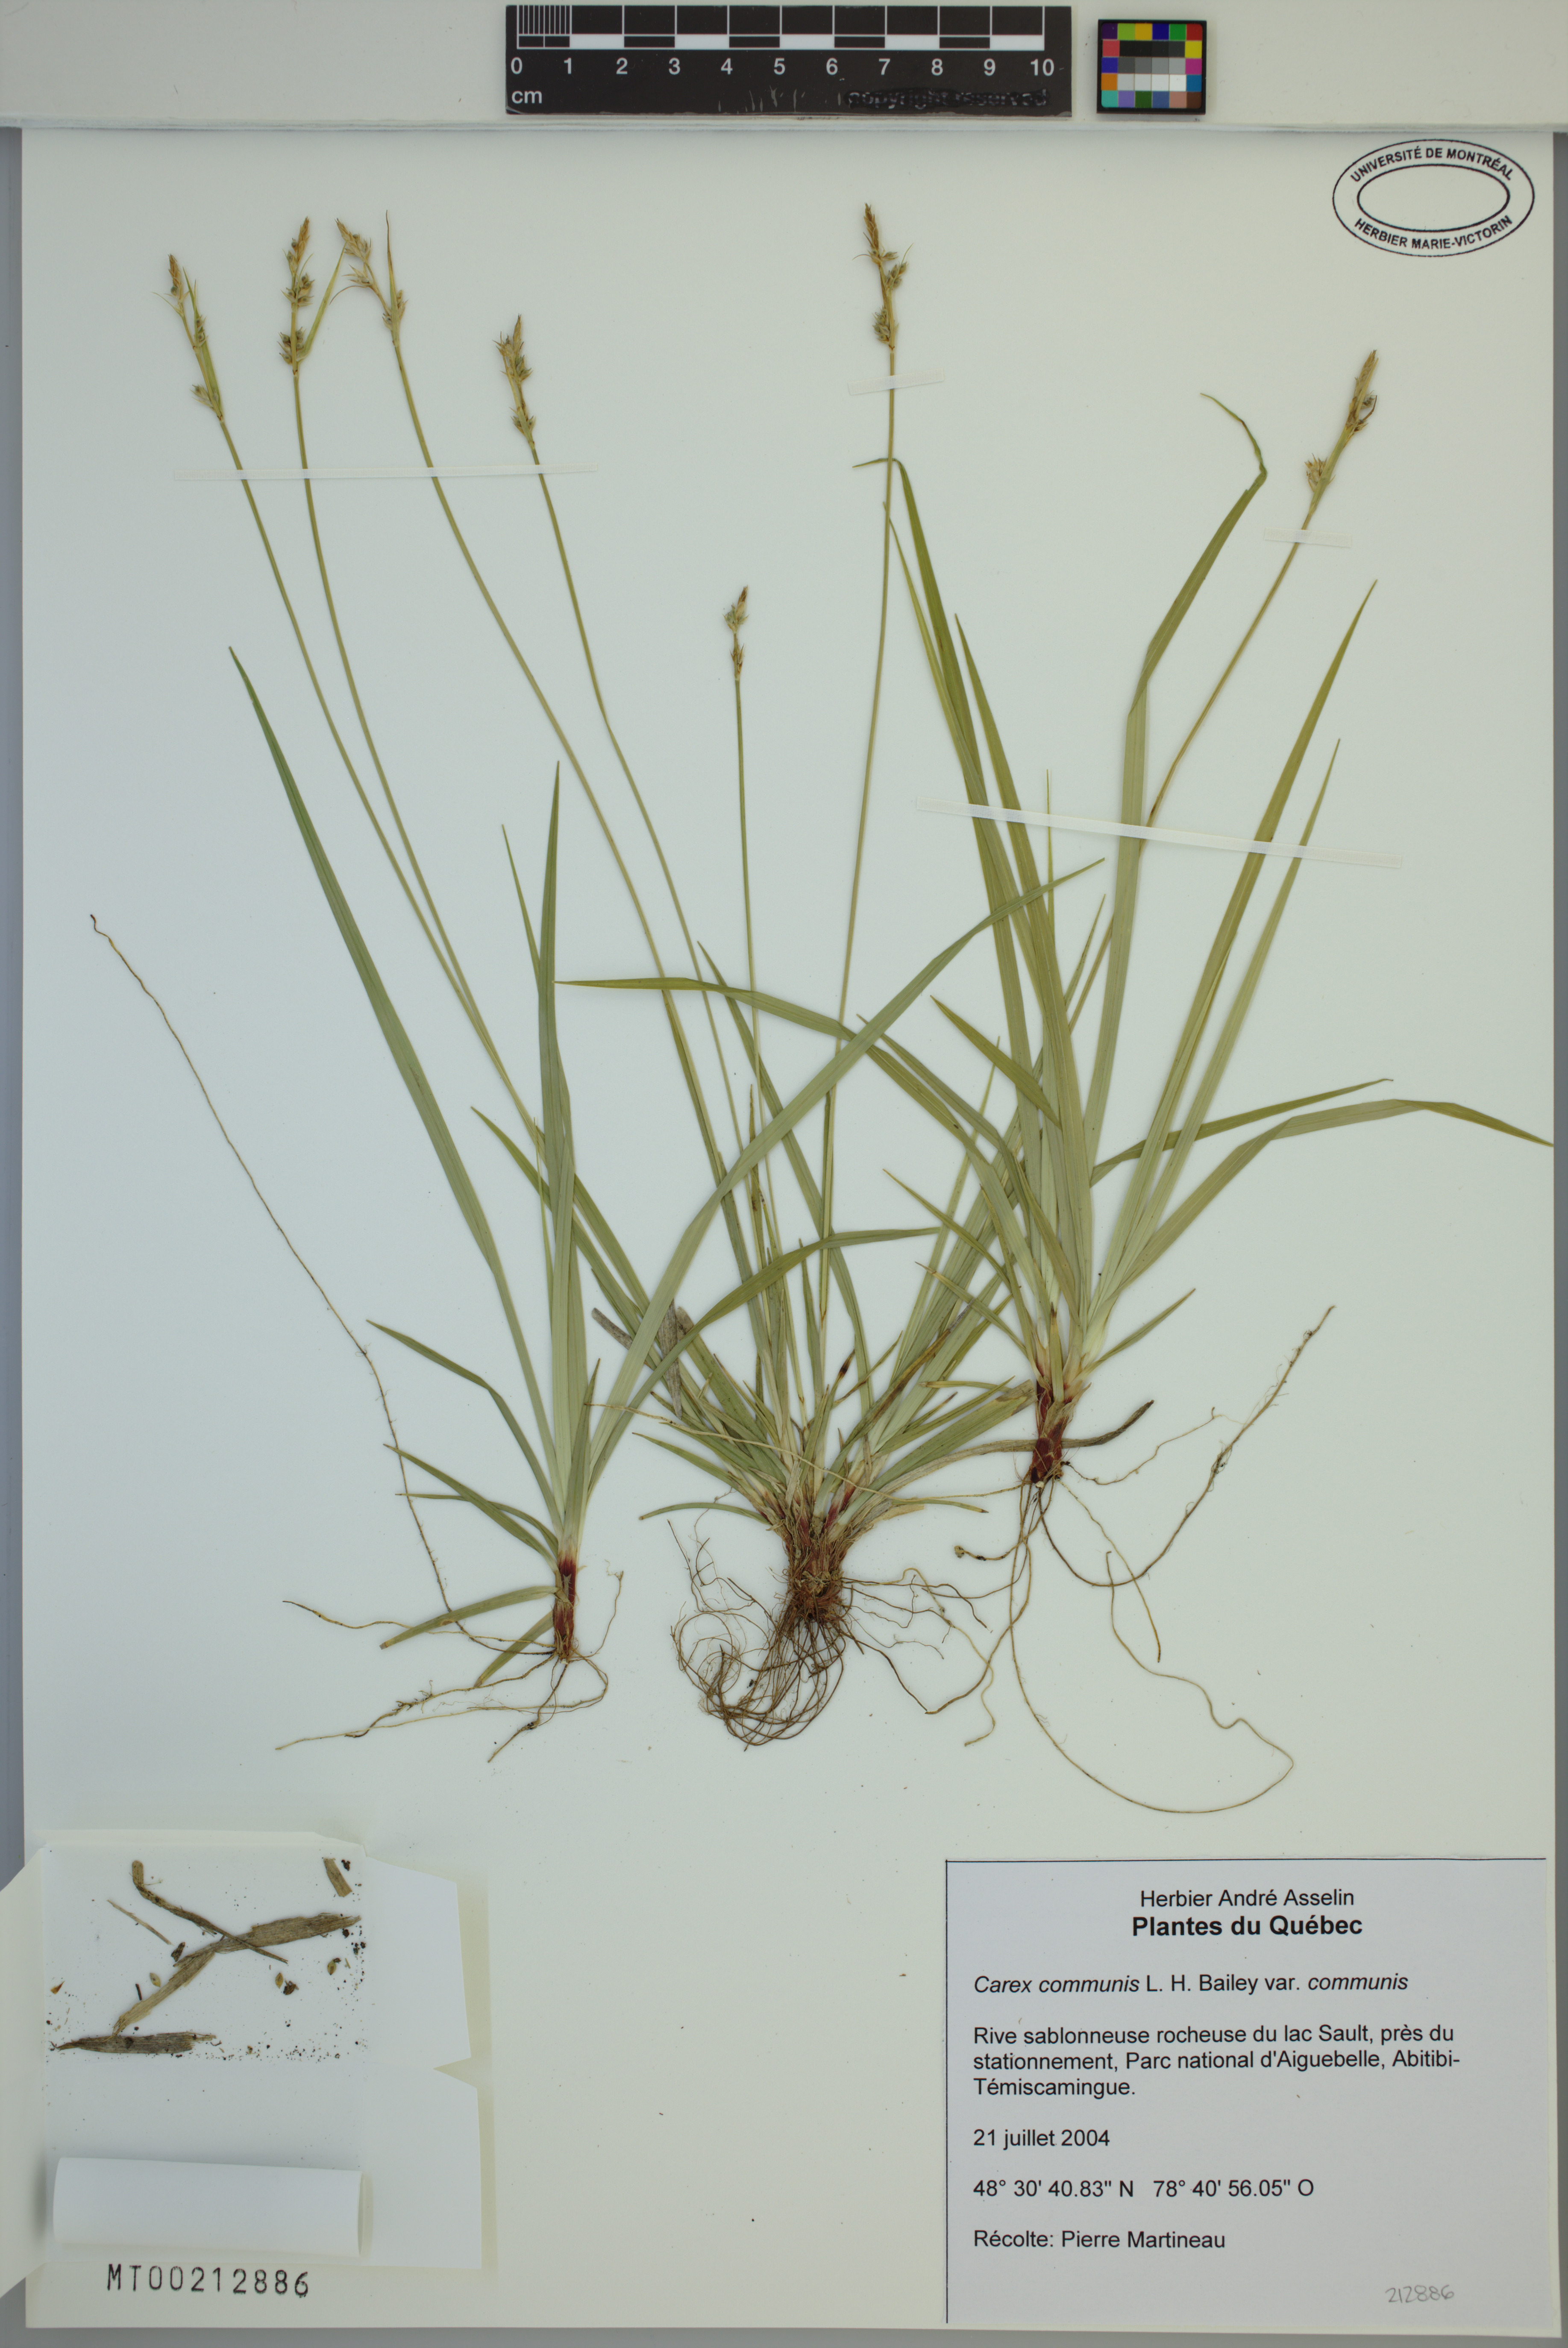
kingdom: Plantae
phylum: Tracheophyta
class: Liliopsida
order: Poales
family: Cyperaceae
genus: Carex
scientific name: Carex communis
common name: Colonial oak sedge
